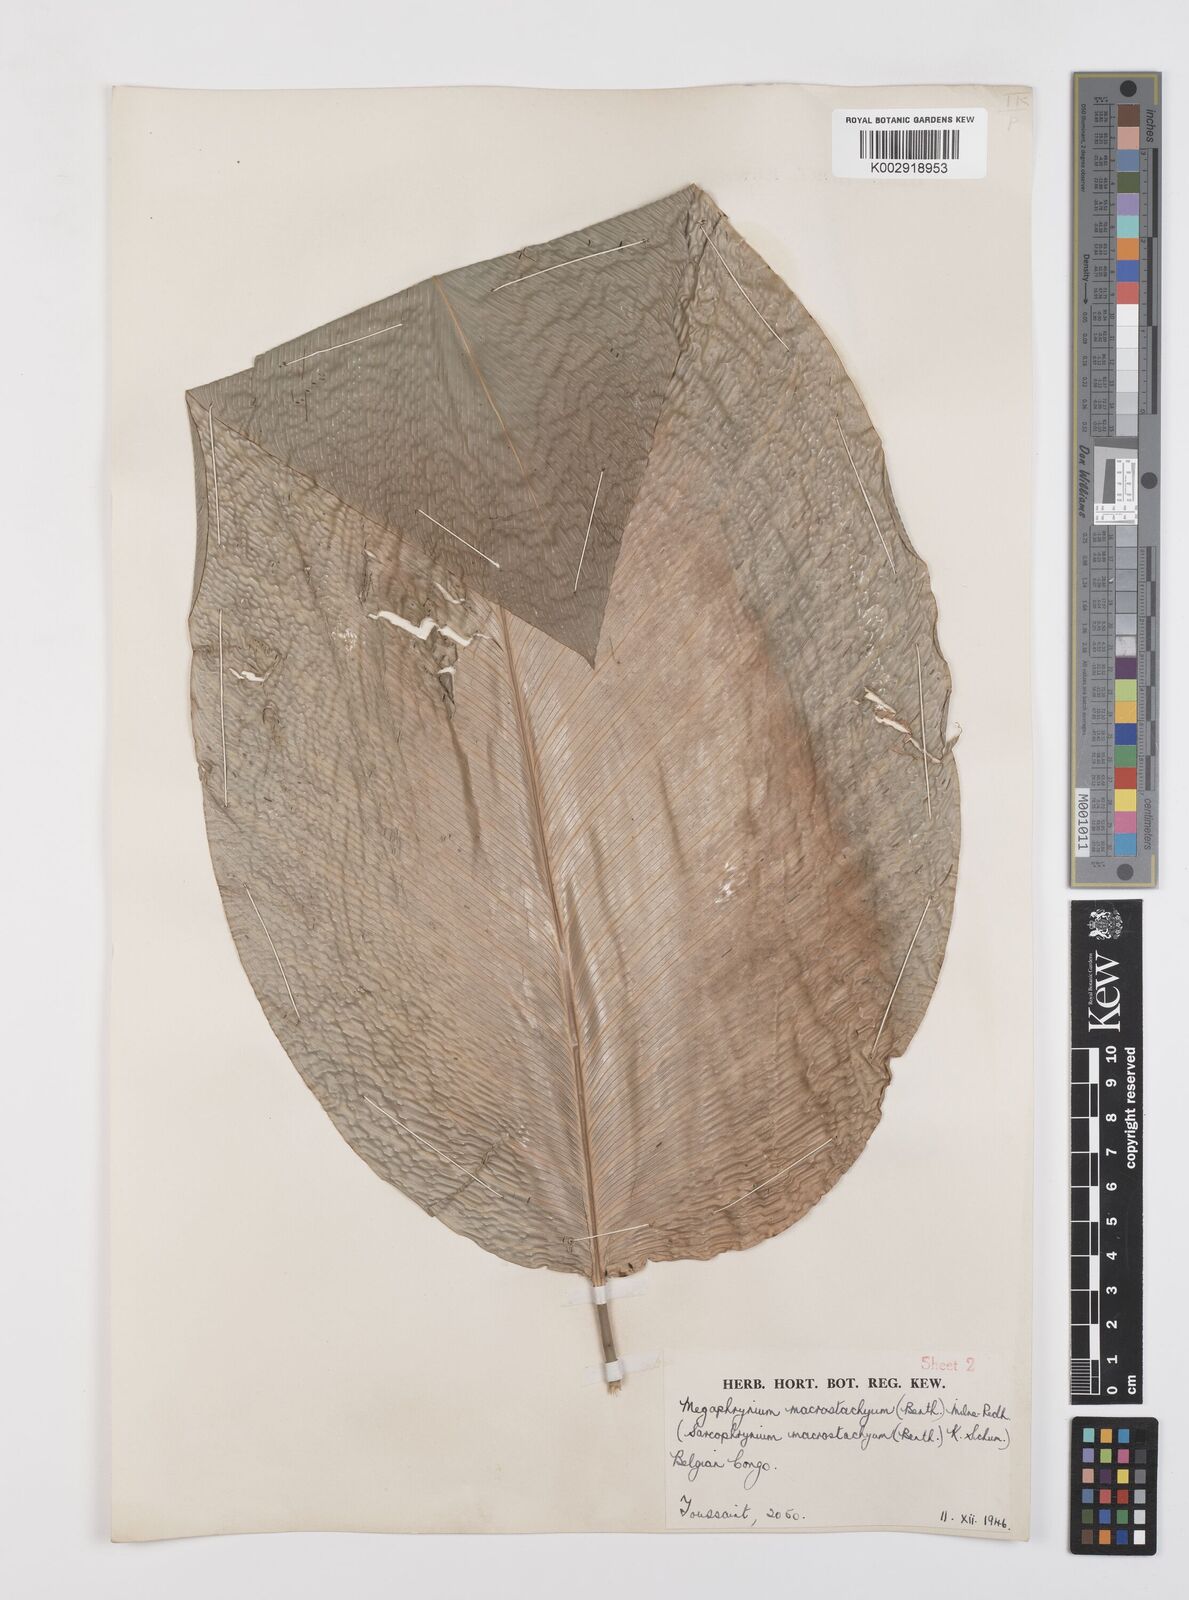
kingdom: Plantae
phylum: Tracheophyta
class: Liliopsida
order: Zingiberales
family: Marantaceae
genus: Megaphrynium
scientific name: Megaphrynium trichogynum
